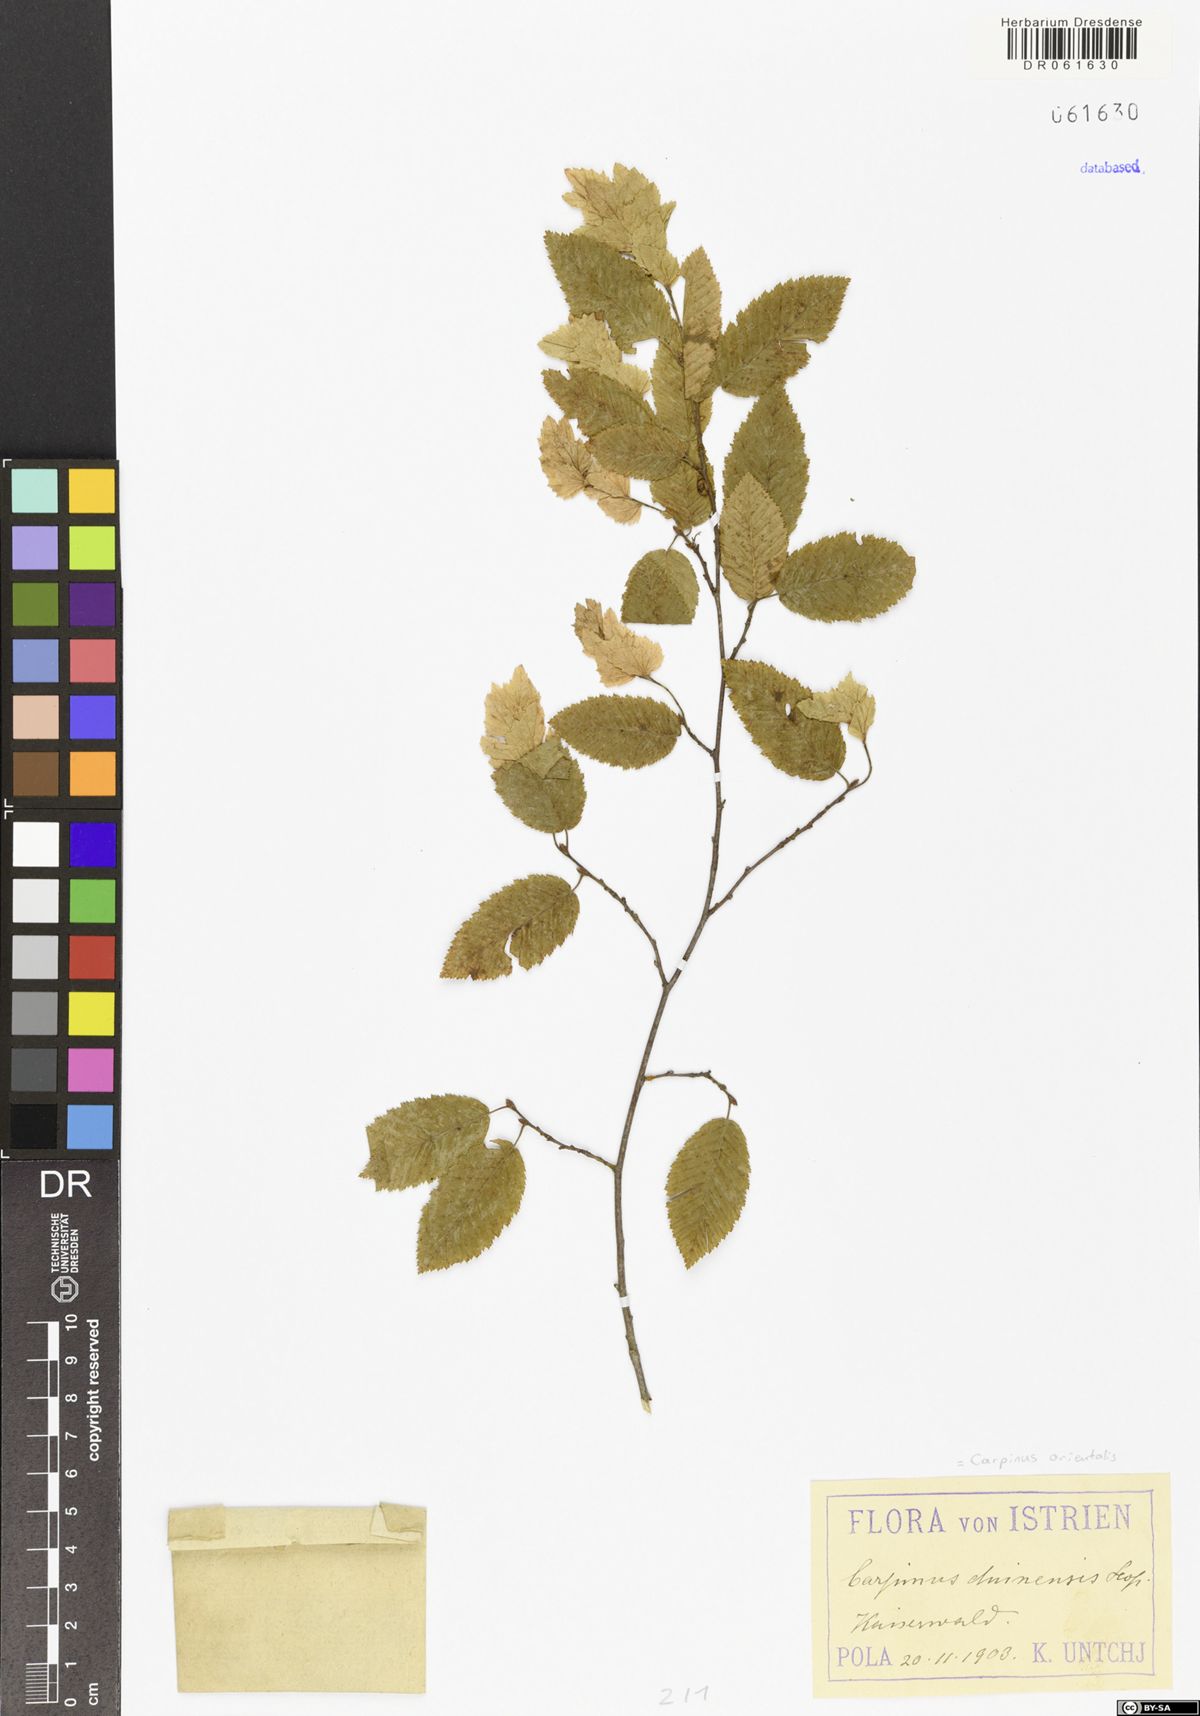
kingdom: Plantae
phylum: Tracheophyta
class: Magnoliopsida
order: Fagales
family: Betulaceae
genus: Carpinus
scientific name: Carpinus orientalis
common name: Eastern hornbeam
